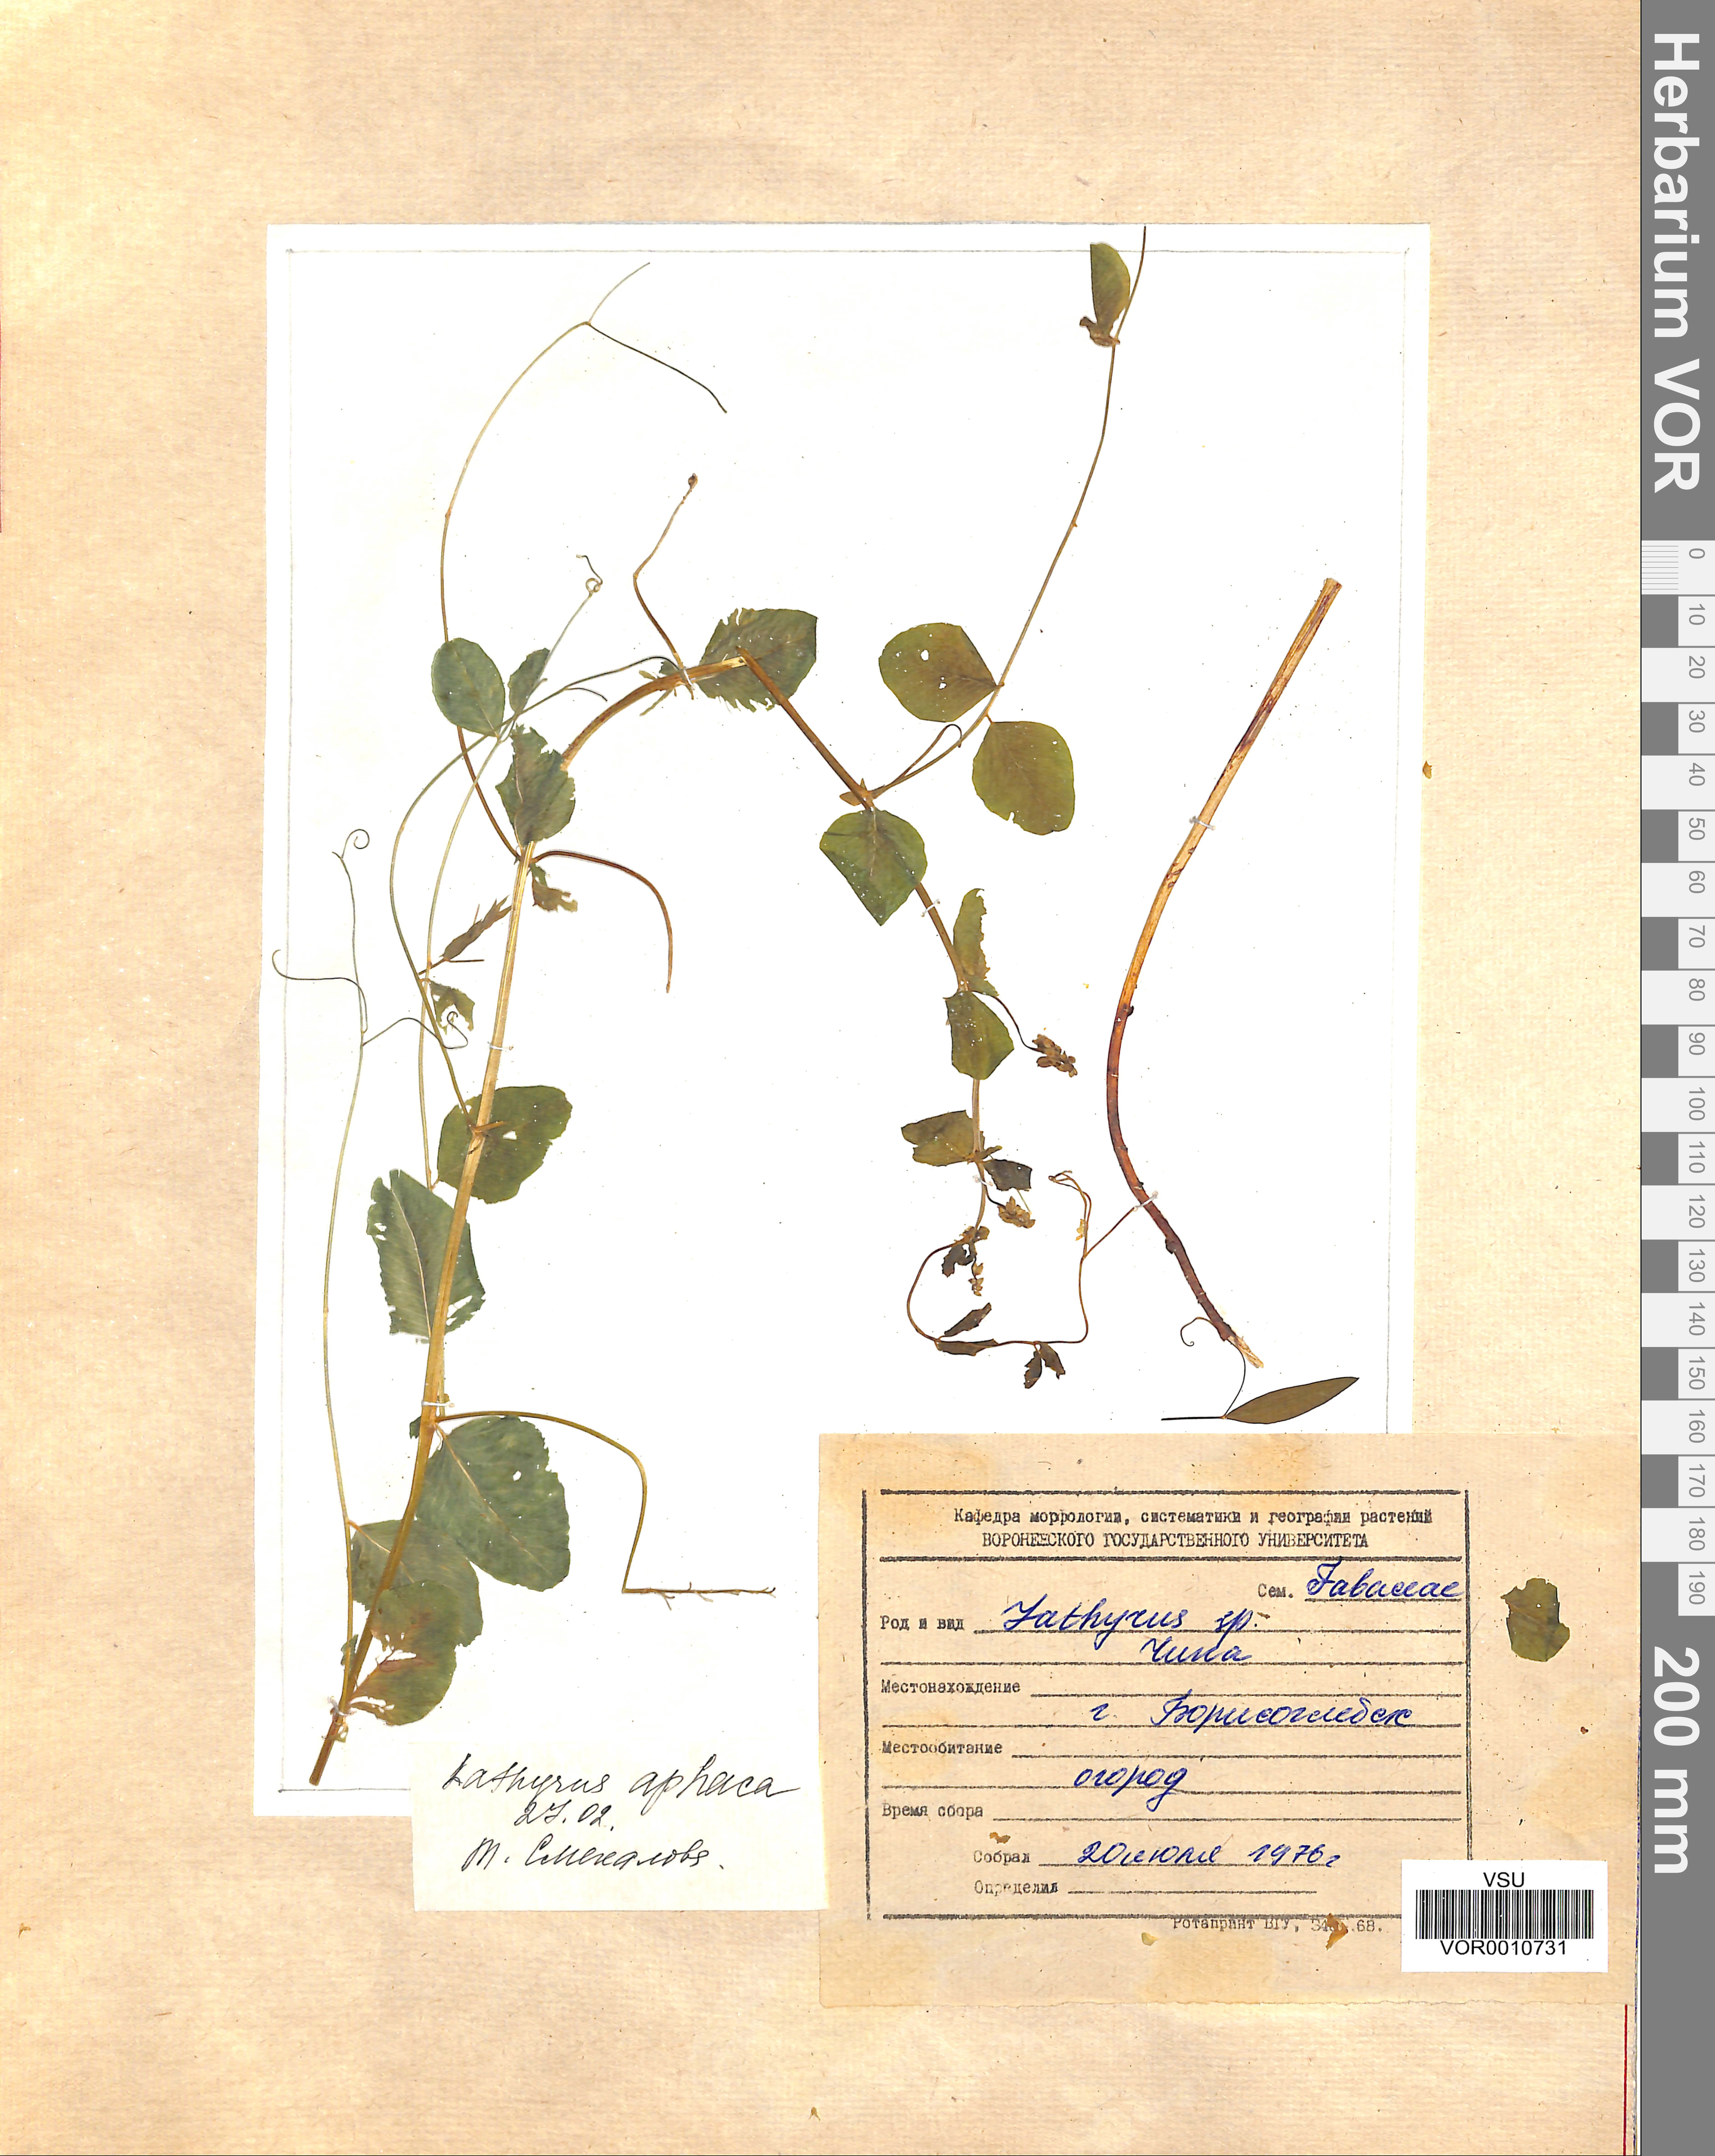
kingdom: Plantae
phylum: Tracheophyta
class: Magnoliopsida
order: Fabales
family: Fabaceae
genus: Lathyrus
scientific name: Lathyrus aphaca
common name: Yellow vetchling
